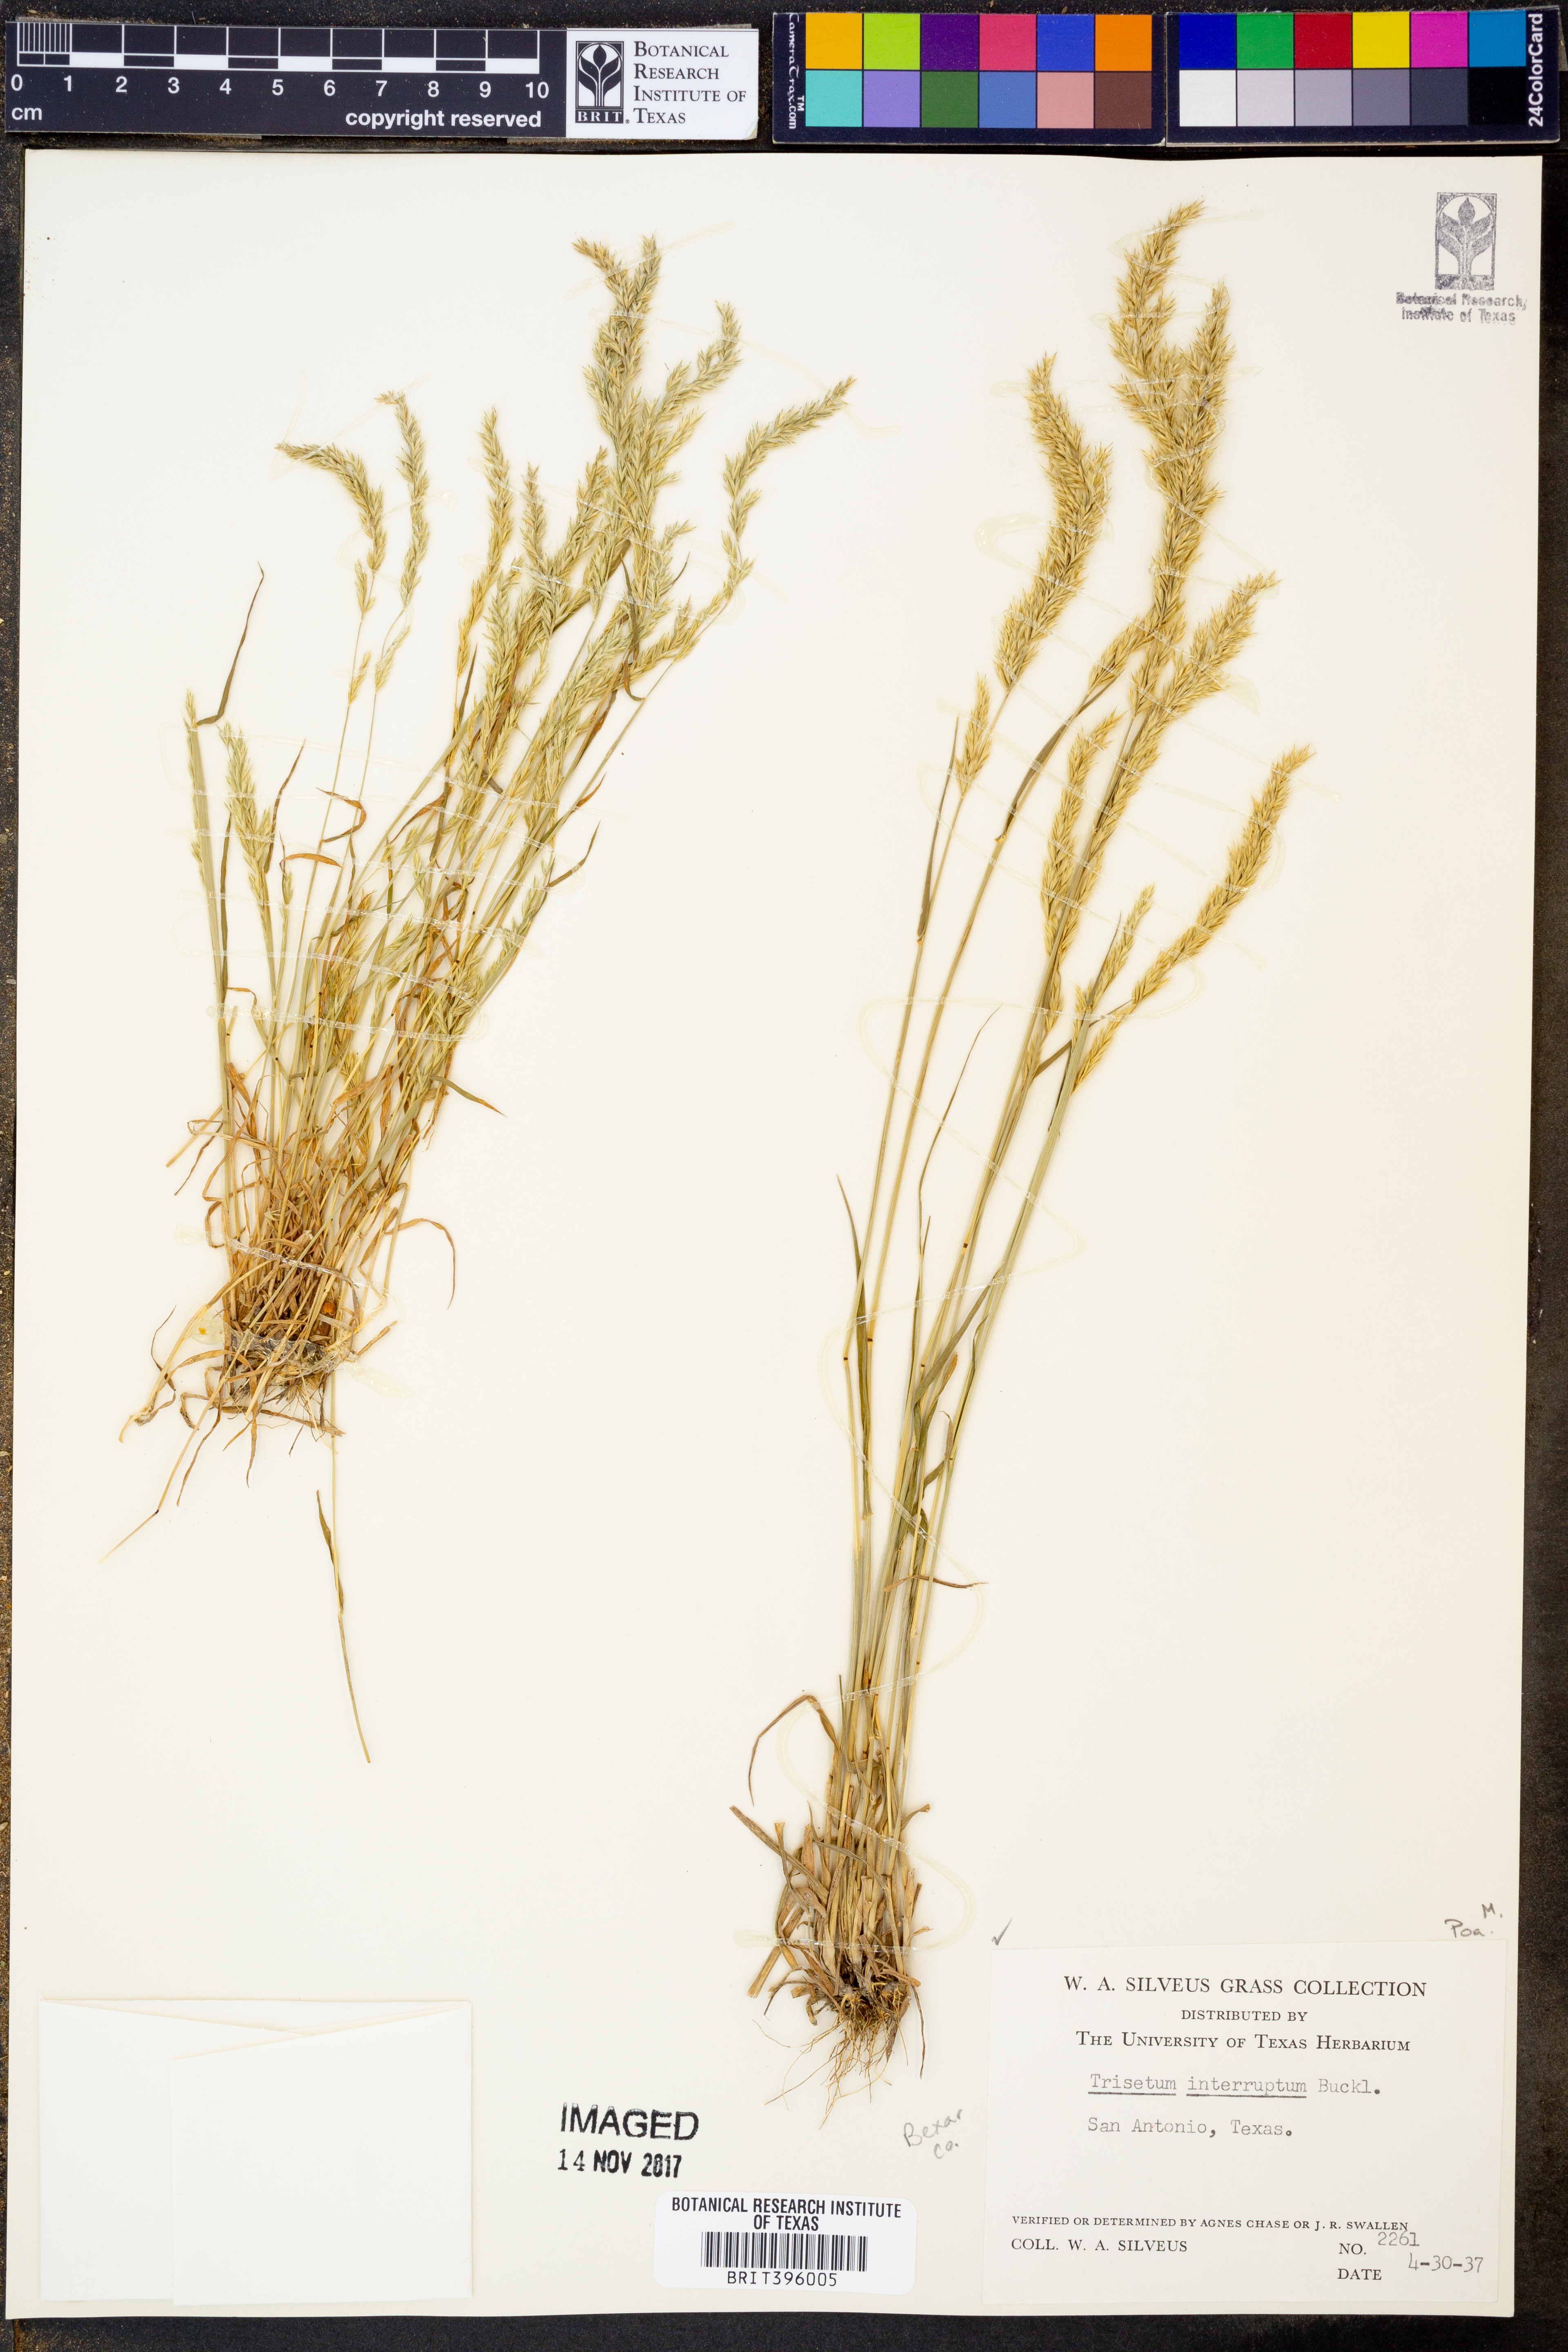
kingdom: Plantae
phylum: Tracheophyta
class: Liliopsida
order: Poales
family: Poaceae
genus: Sphenopholis
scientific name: Sphenopholis interrupta
